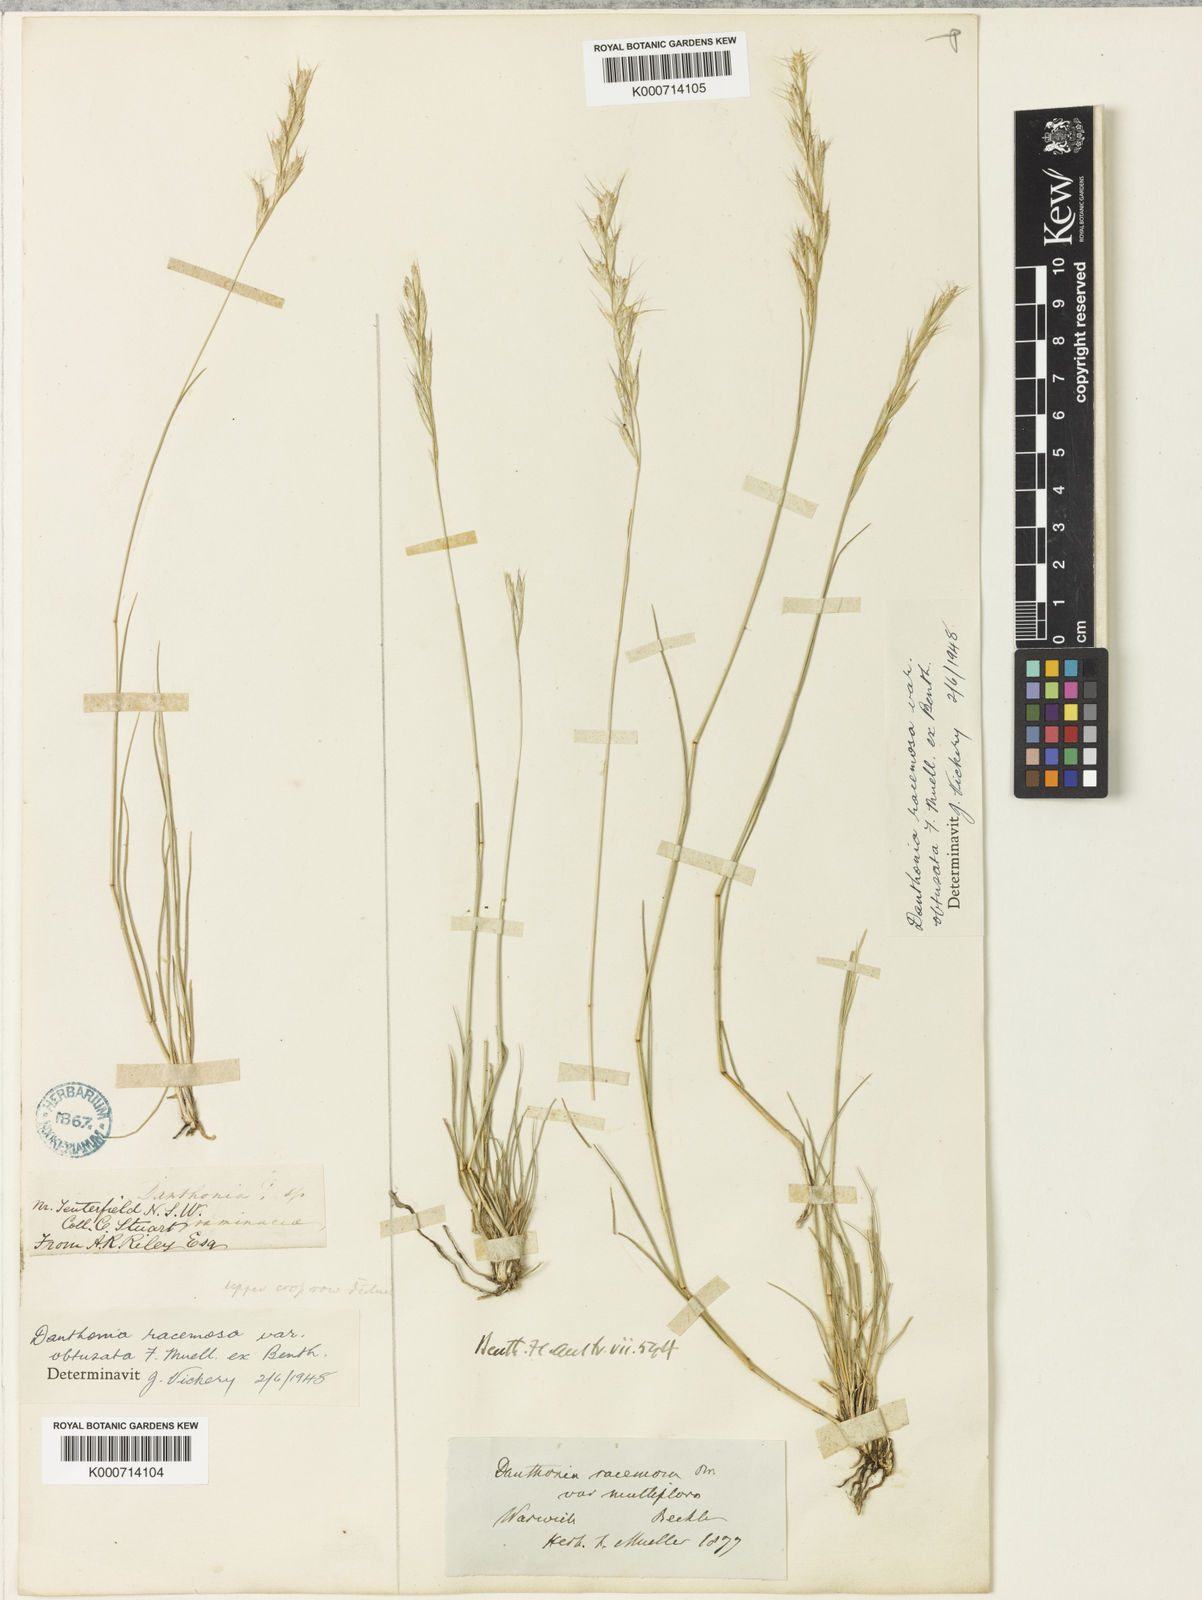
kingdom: Plantae
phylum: Tracheophyta
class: Liliopsida
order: Poales
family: Poaceae
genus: Rytidosperma
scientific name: Rytidosperma racemosum
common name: Wallaby-grass
